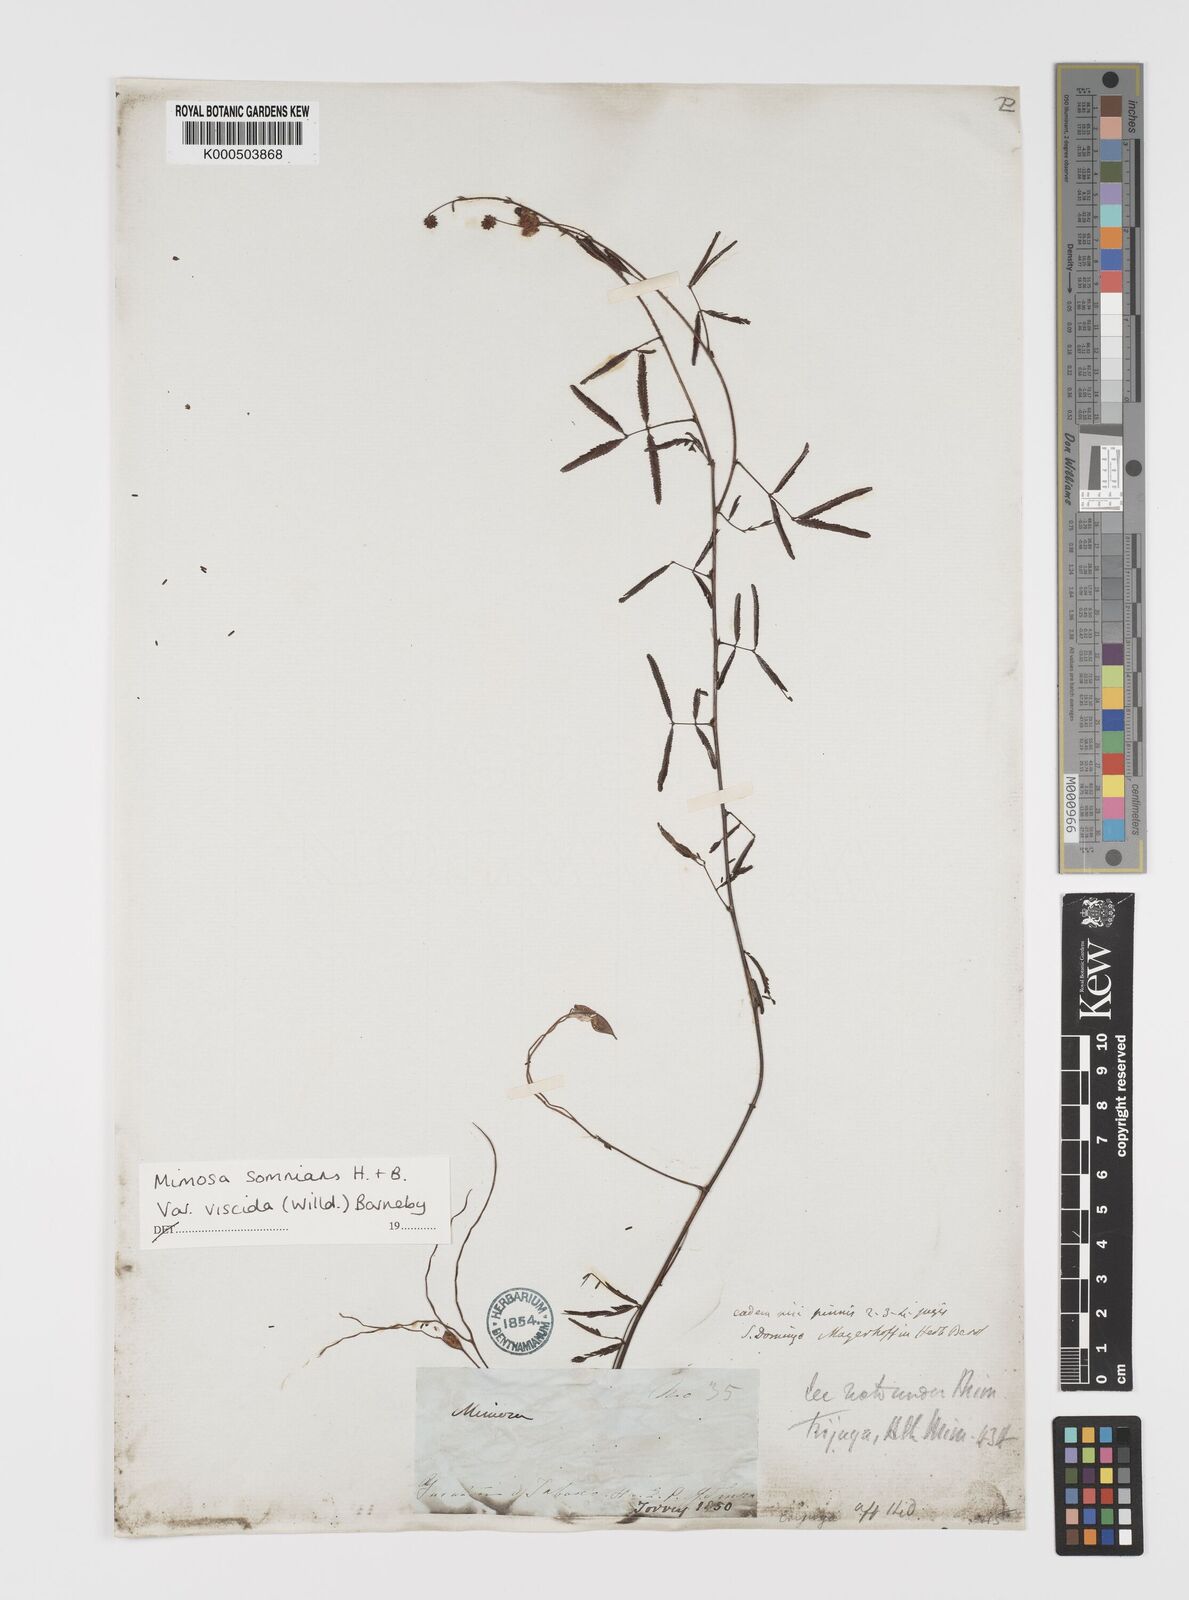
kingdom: Plantae
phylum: Tracheophyta
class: Magnoliopsida
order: Fabales
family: Fabaceae
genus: Mimosa
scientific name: Mimosa somnians
